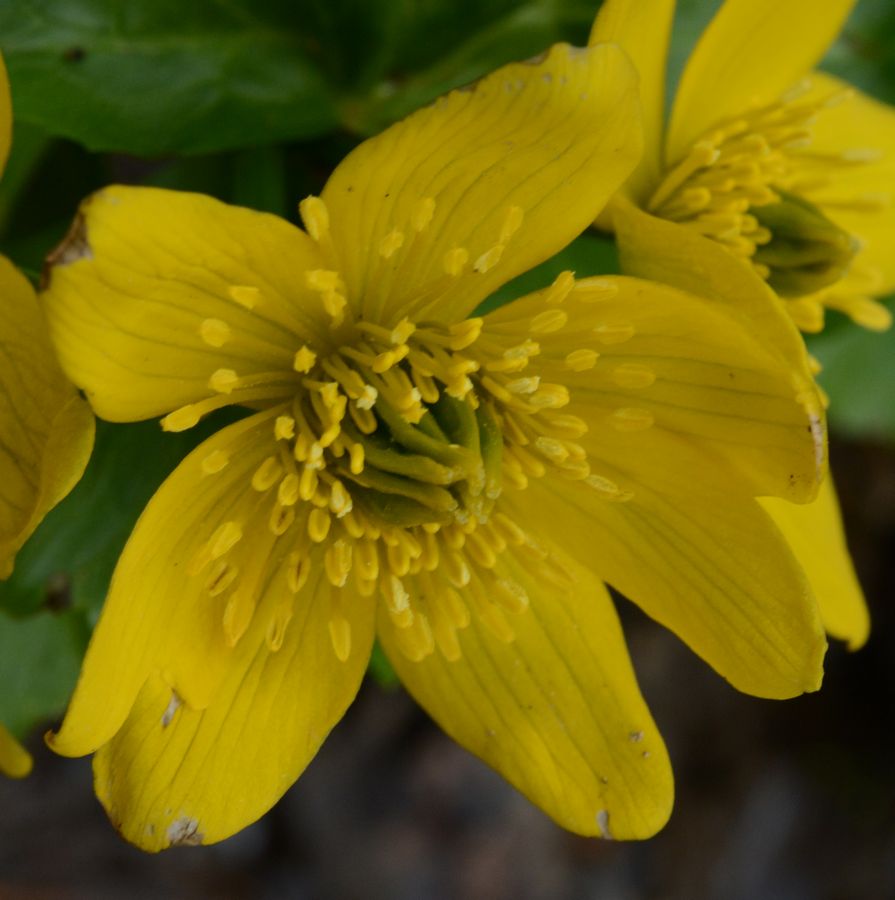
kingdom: Plantae
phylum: Tracheophyta
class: Magnoliopsida
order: Ranunculales
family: Ranunculaceae
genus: Caltha
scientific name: Caltha palustris
